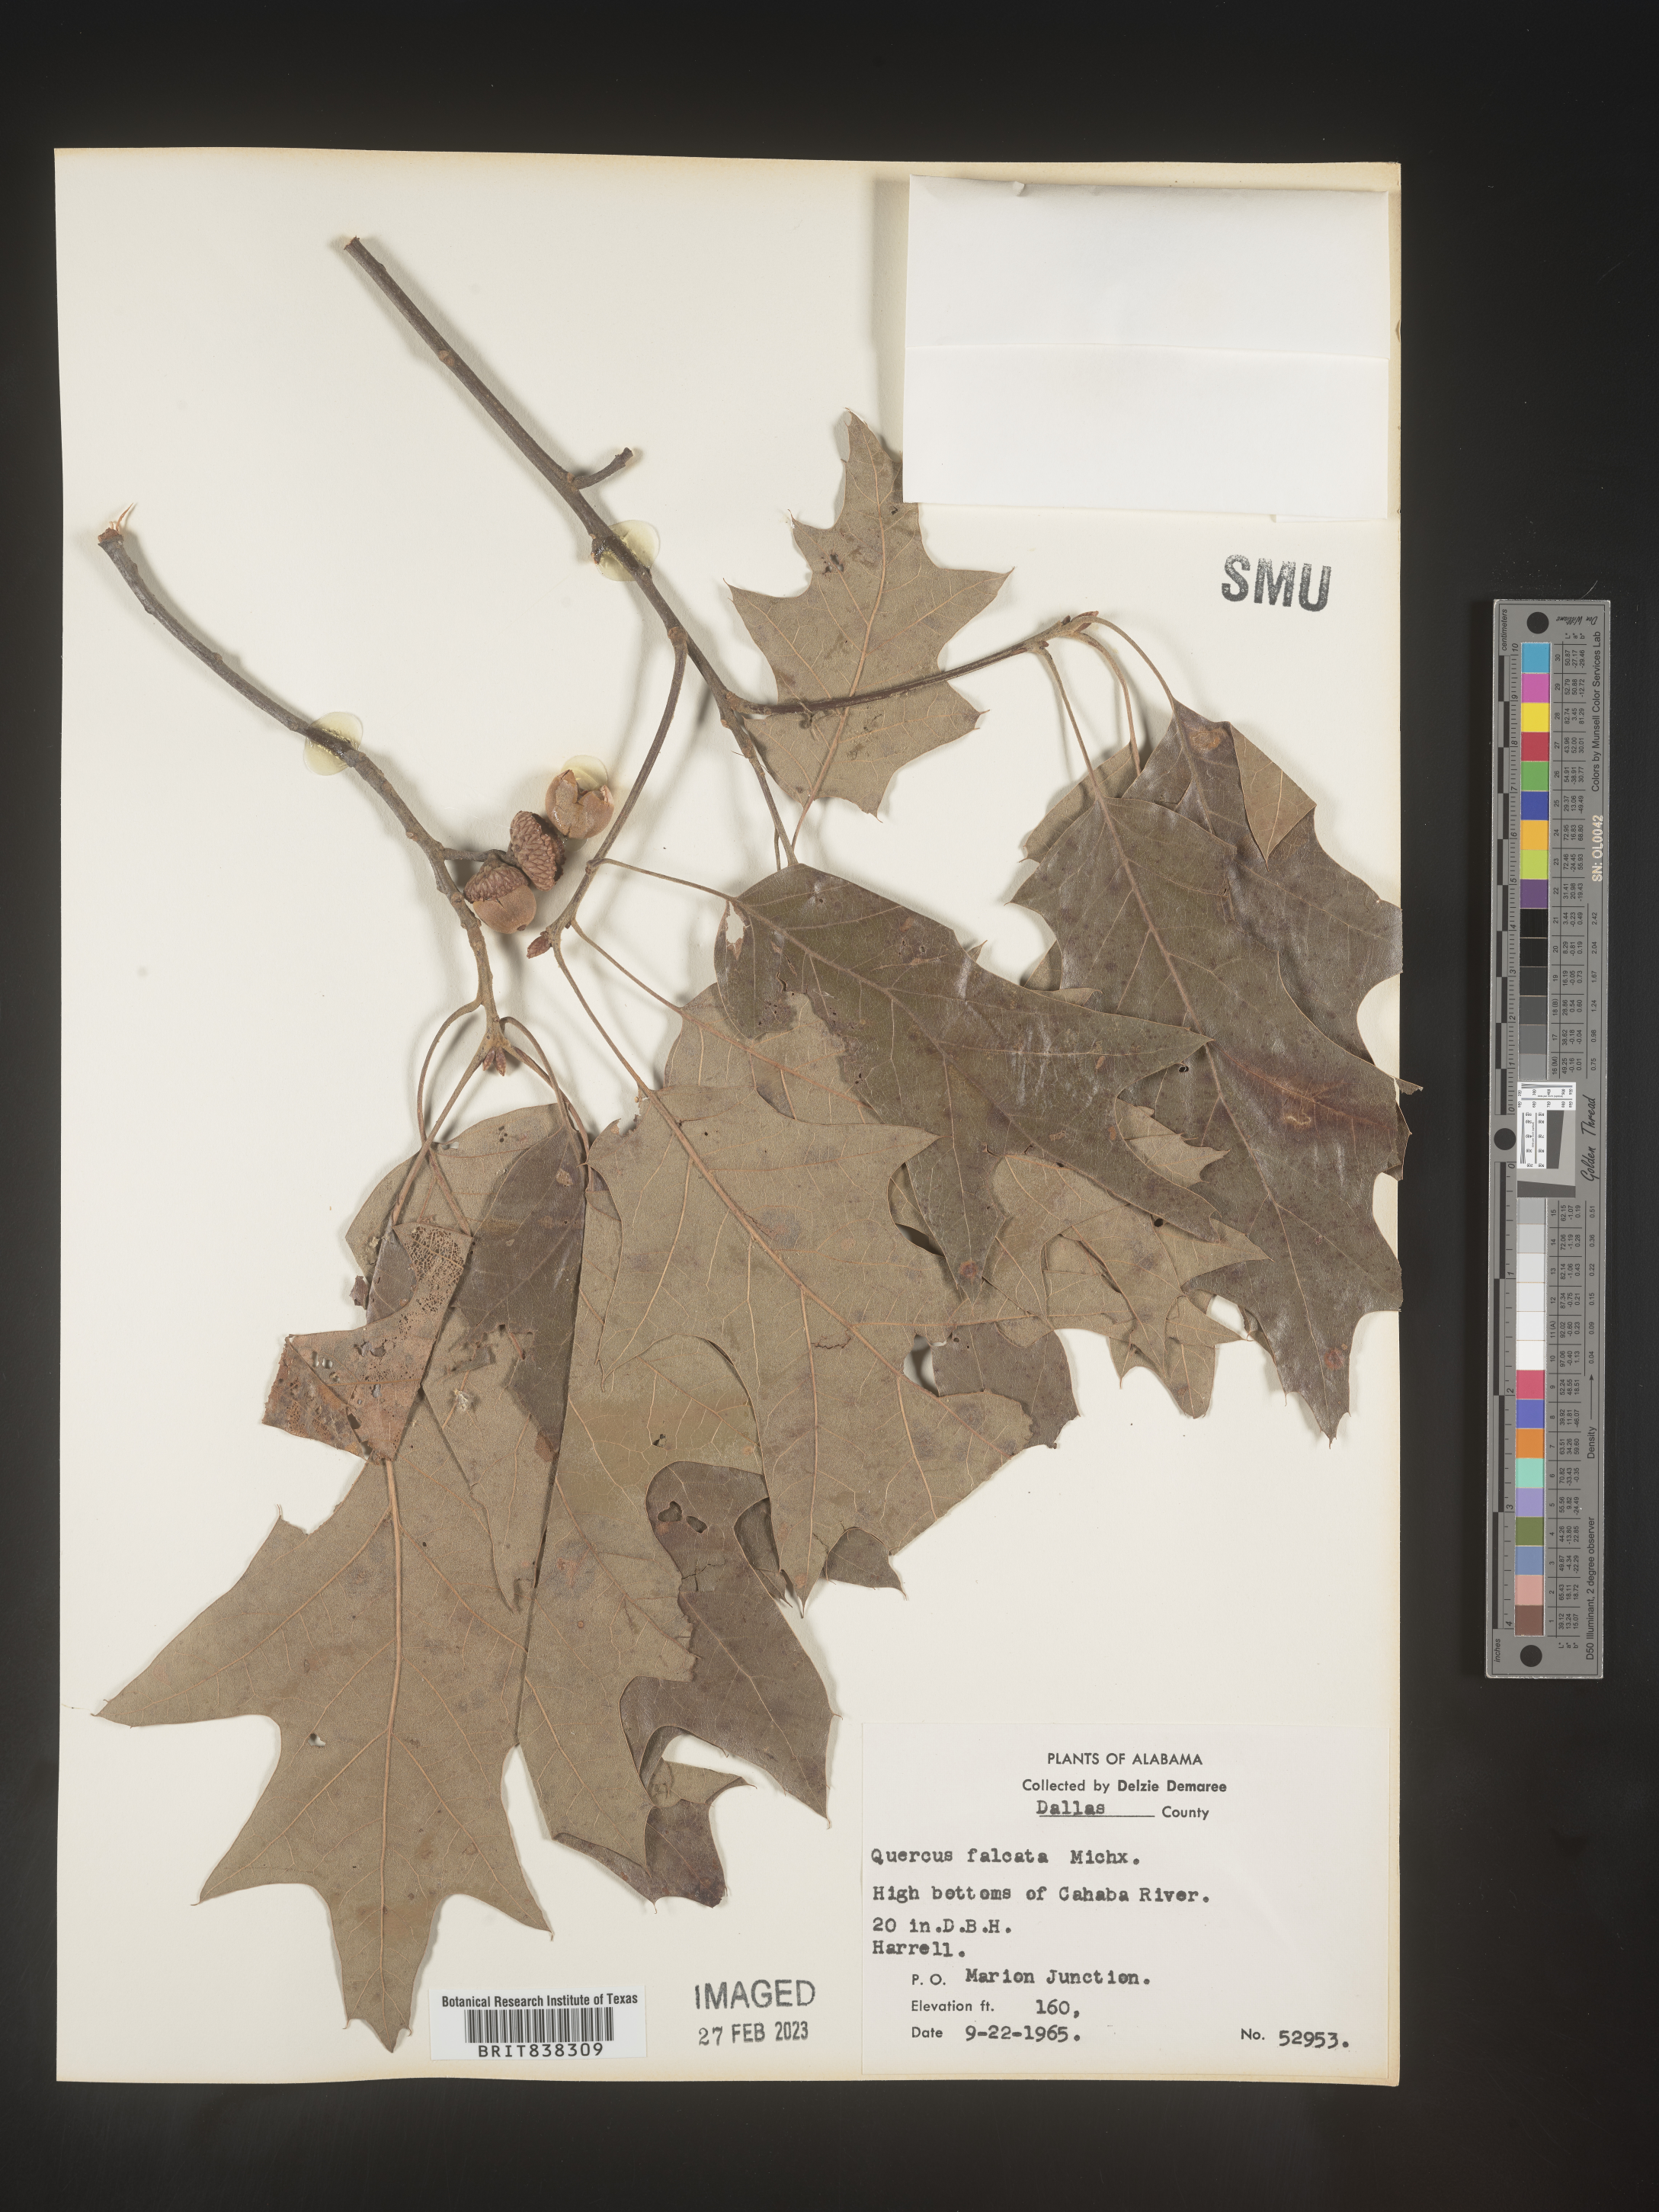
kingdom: Plantae
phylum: Tracheophyta
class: Magnoliopsida
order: Fagales
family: Fagaceae
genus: Quercus
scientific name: Quercus falcata
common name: Southern red oak
